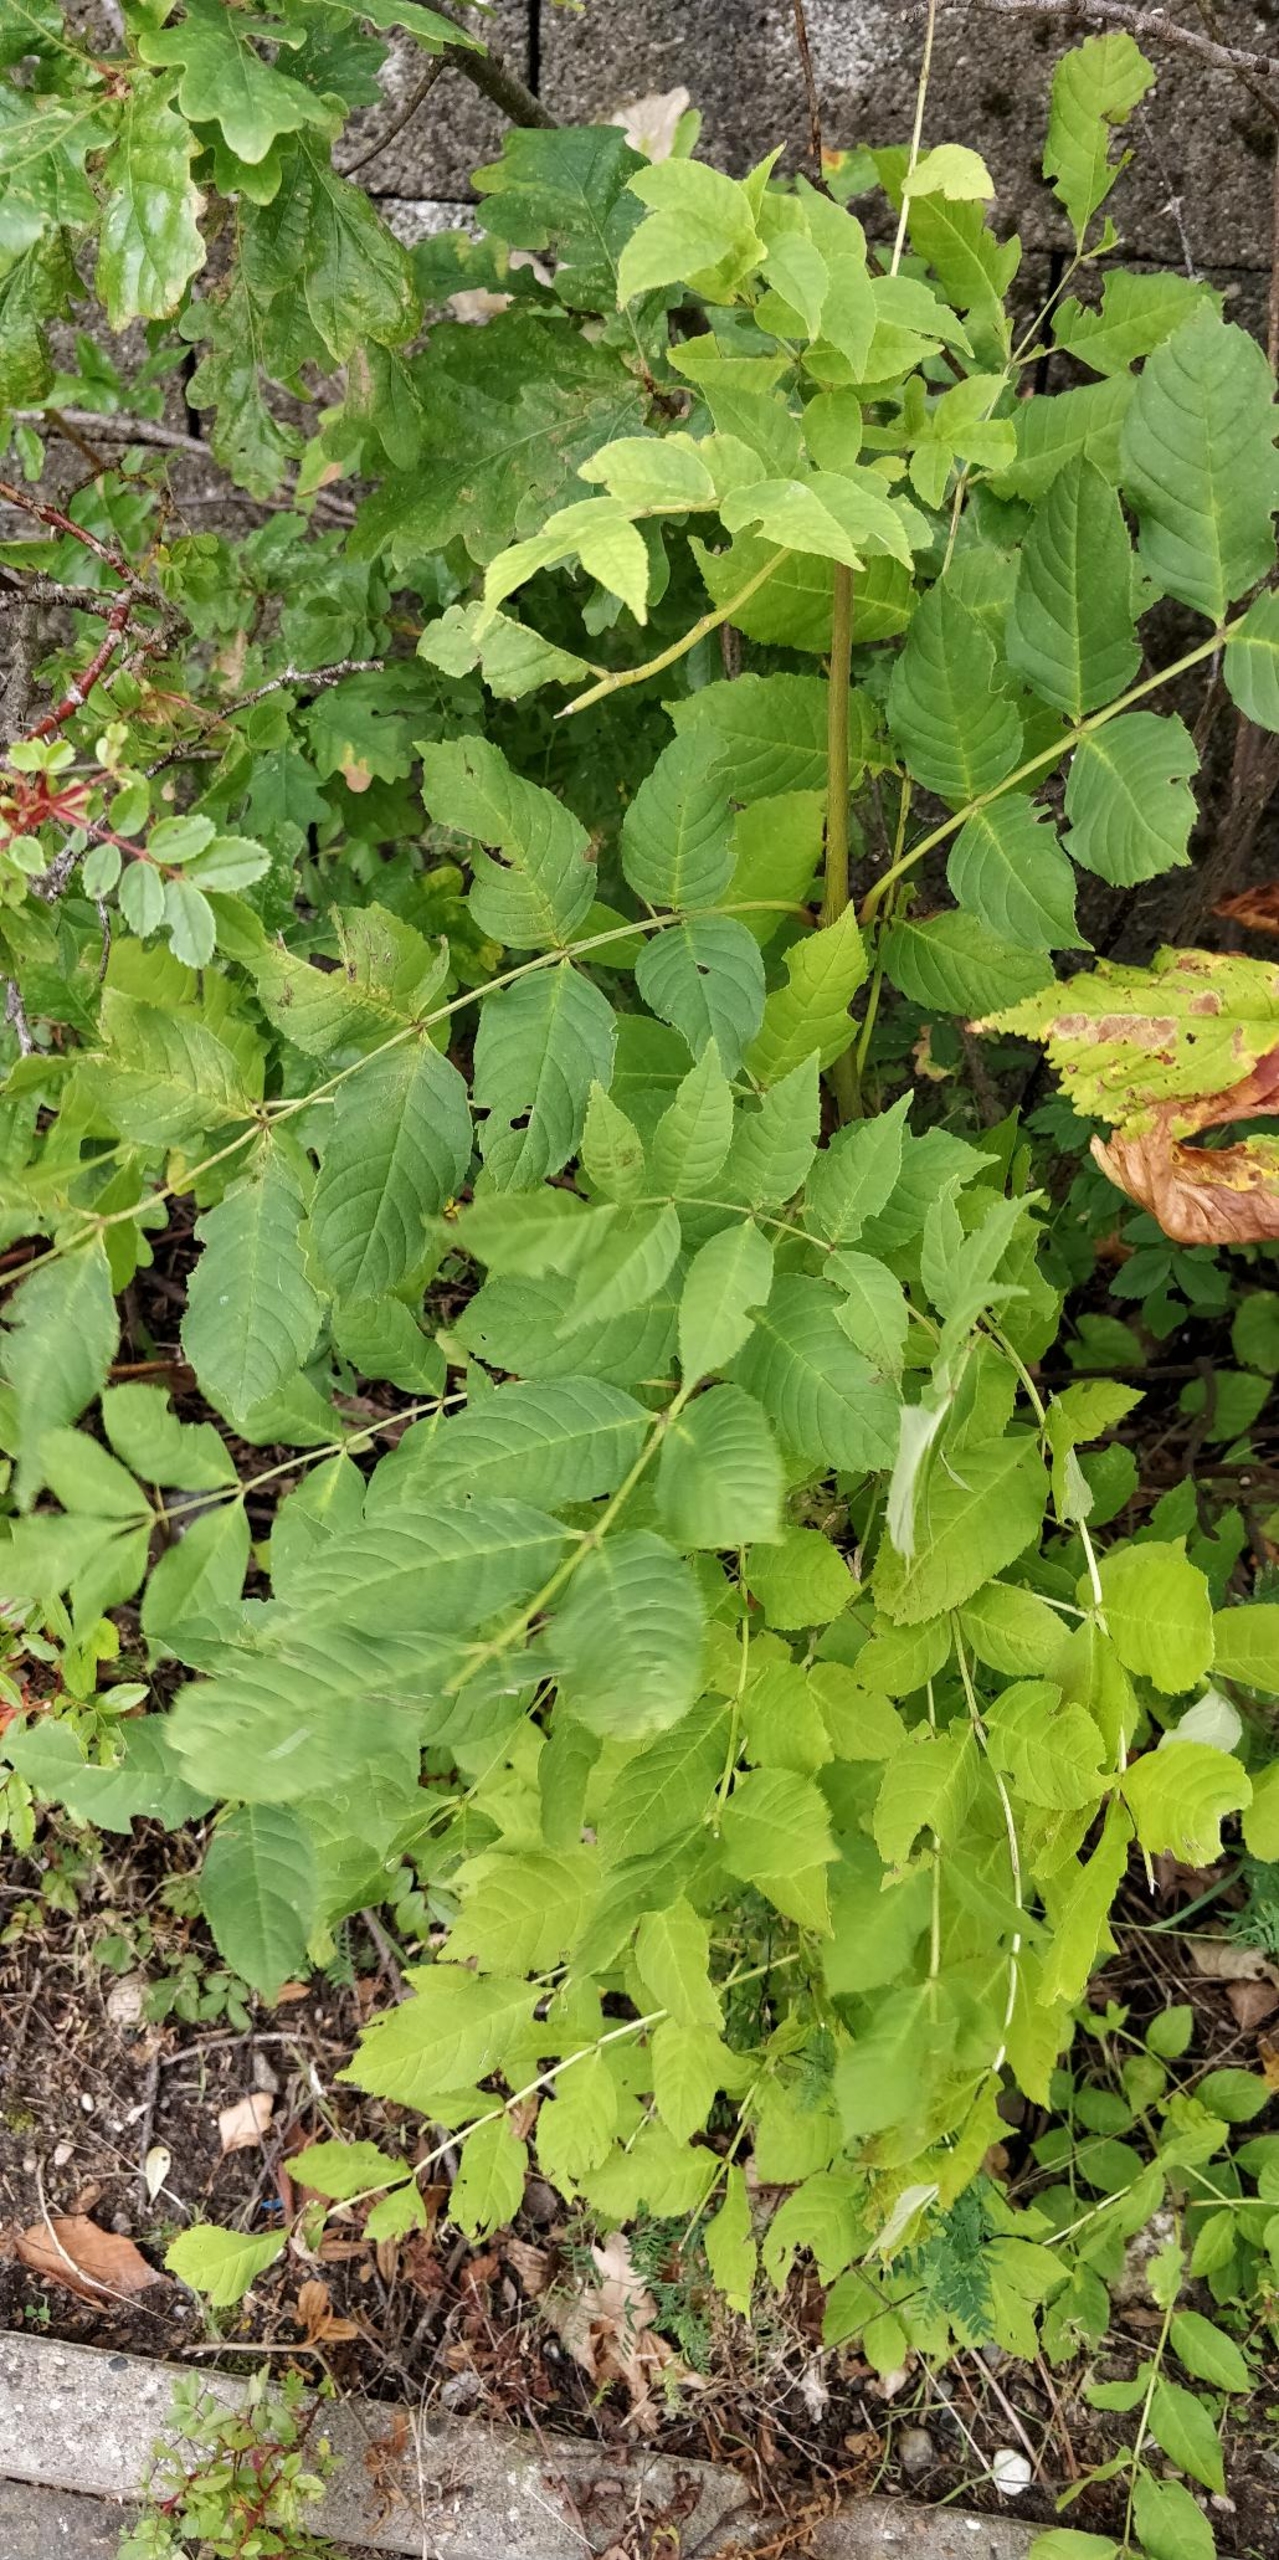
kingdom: Plantae
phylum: Tracheophyta
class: Magnoliopsida
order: Lamiales
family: Oleaceae
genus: Fraxinus
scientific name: Fraxinus excelsior
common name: Ask
